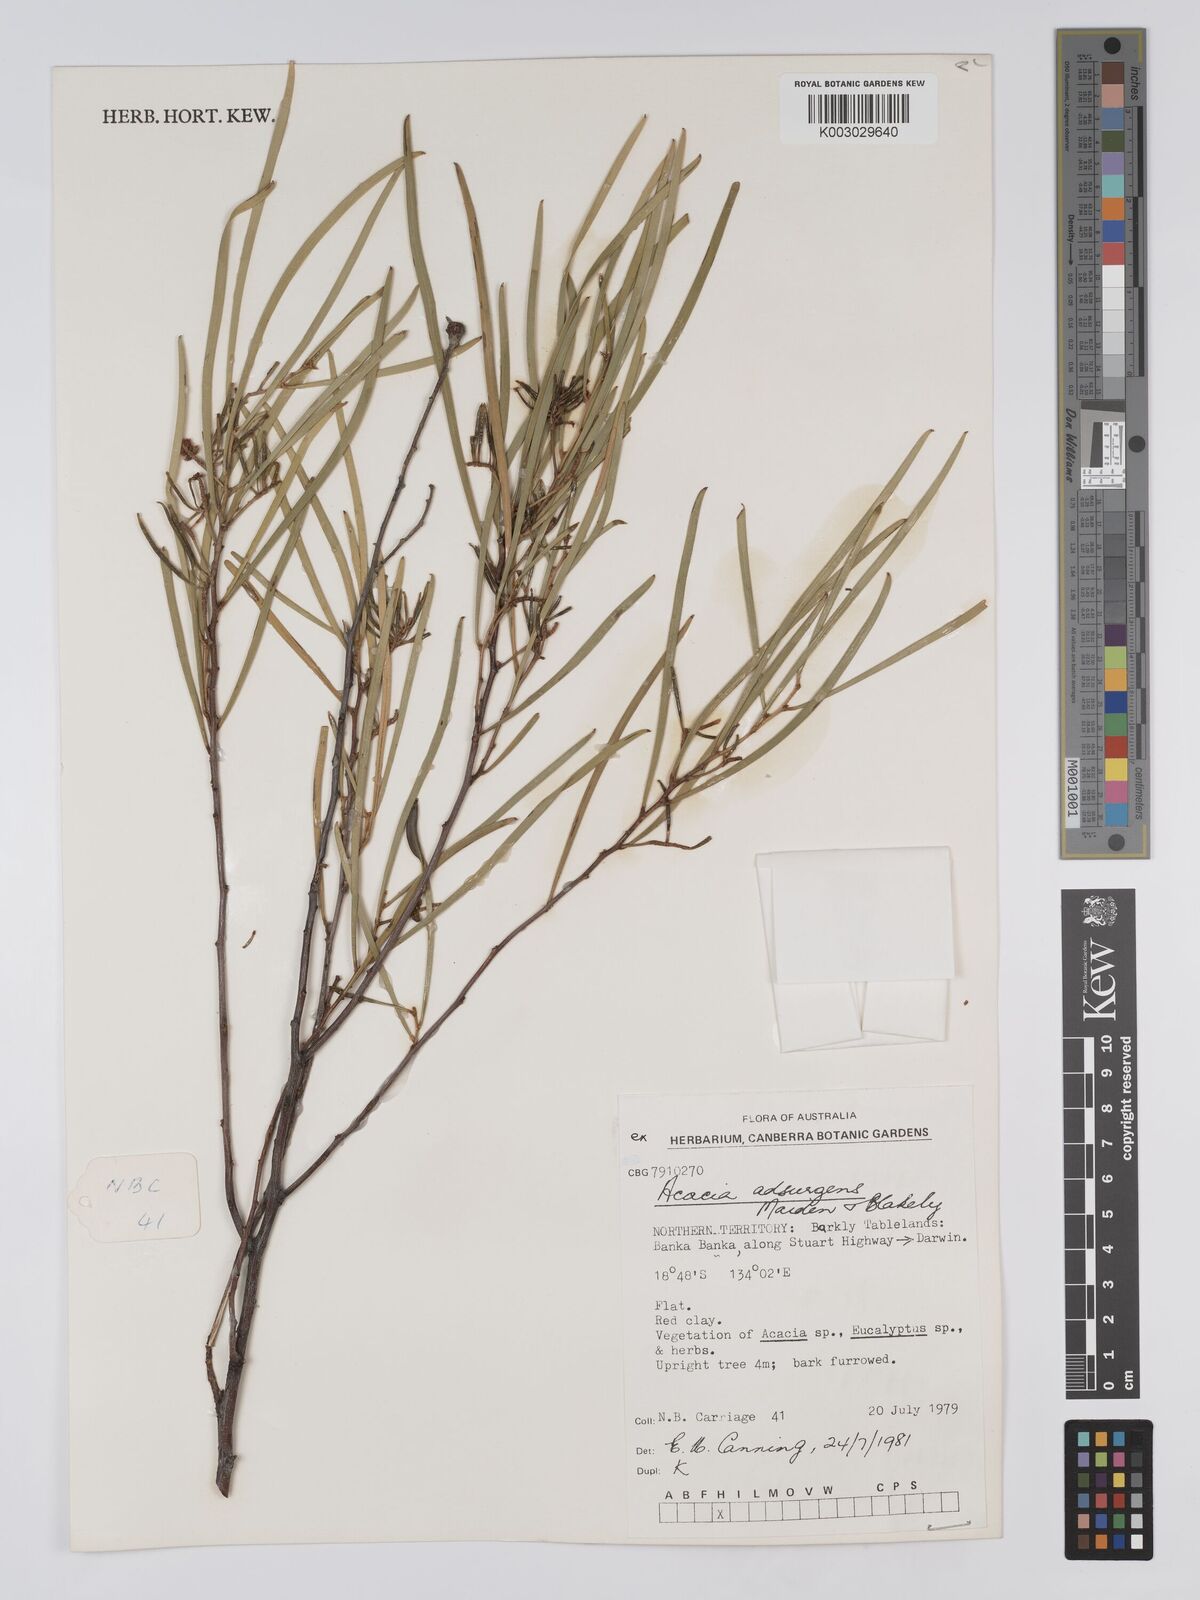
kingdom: Plantae
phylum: Tracheophyta
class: Magnoliopsida
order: Fabales
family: Fabaceae
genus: Acacia
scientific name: Acacia adsurgens
